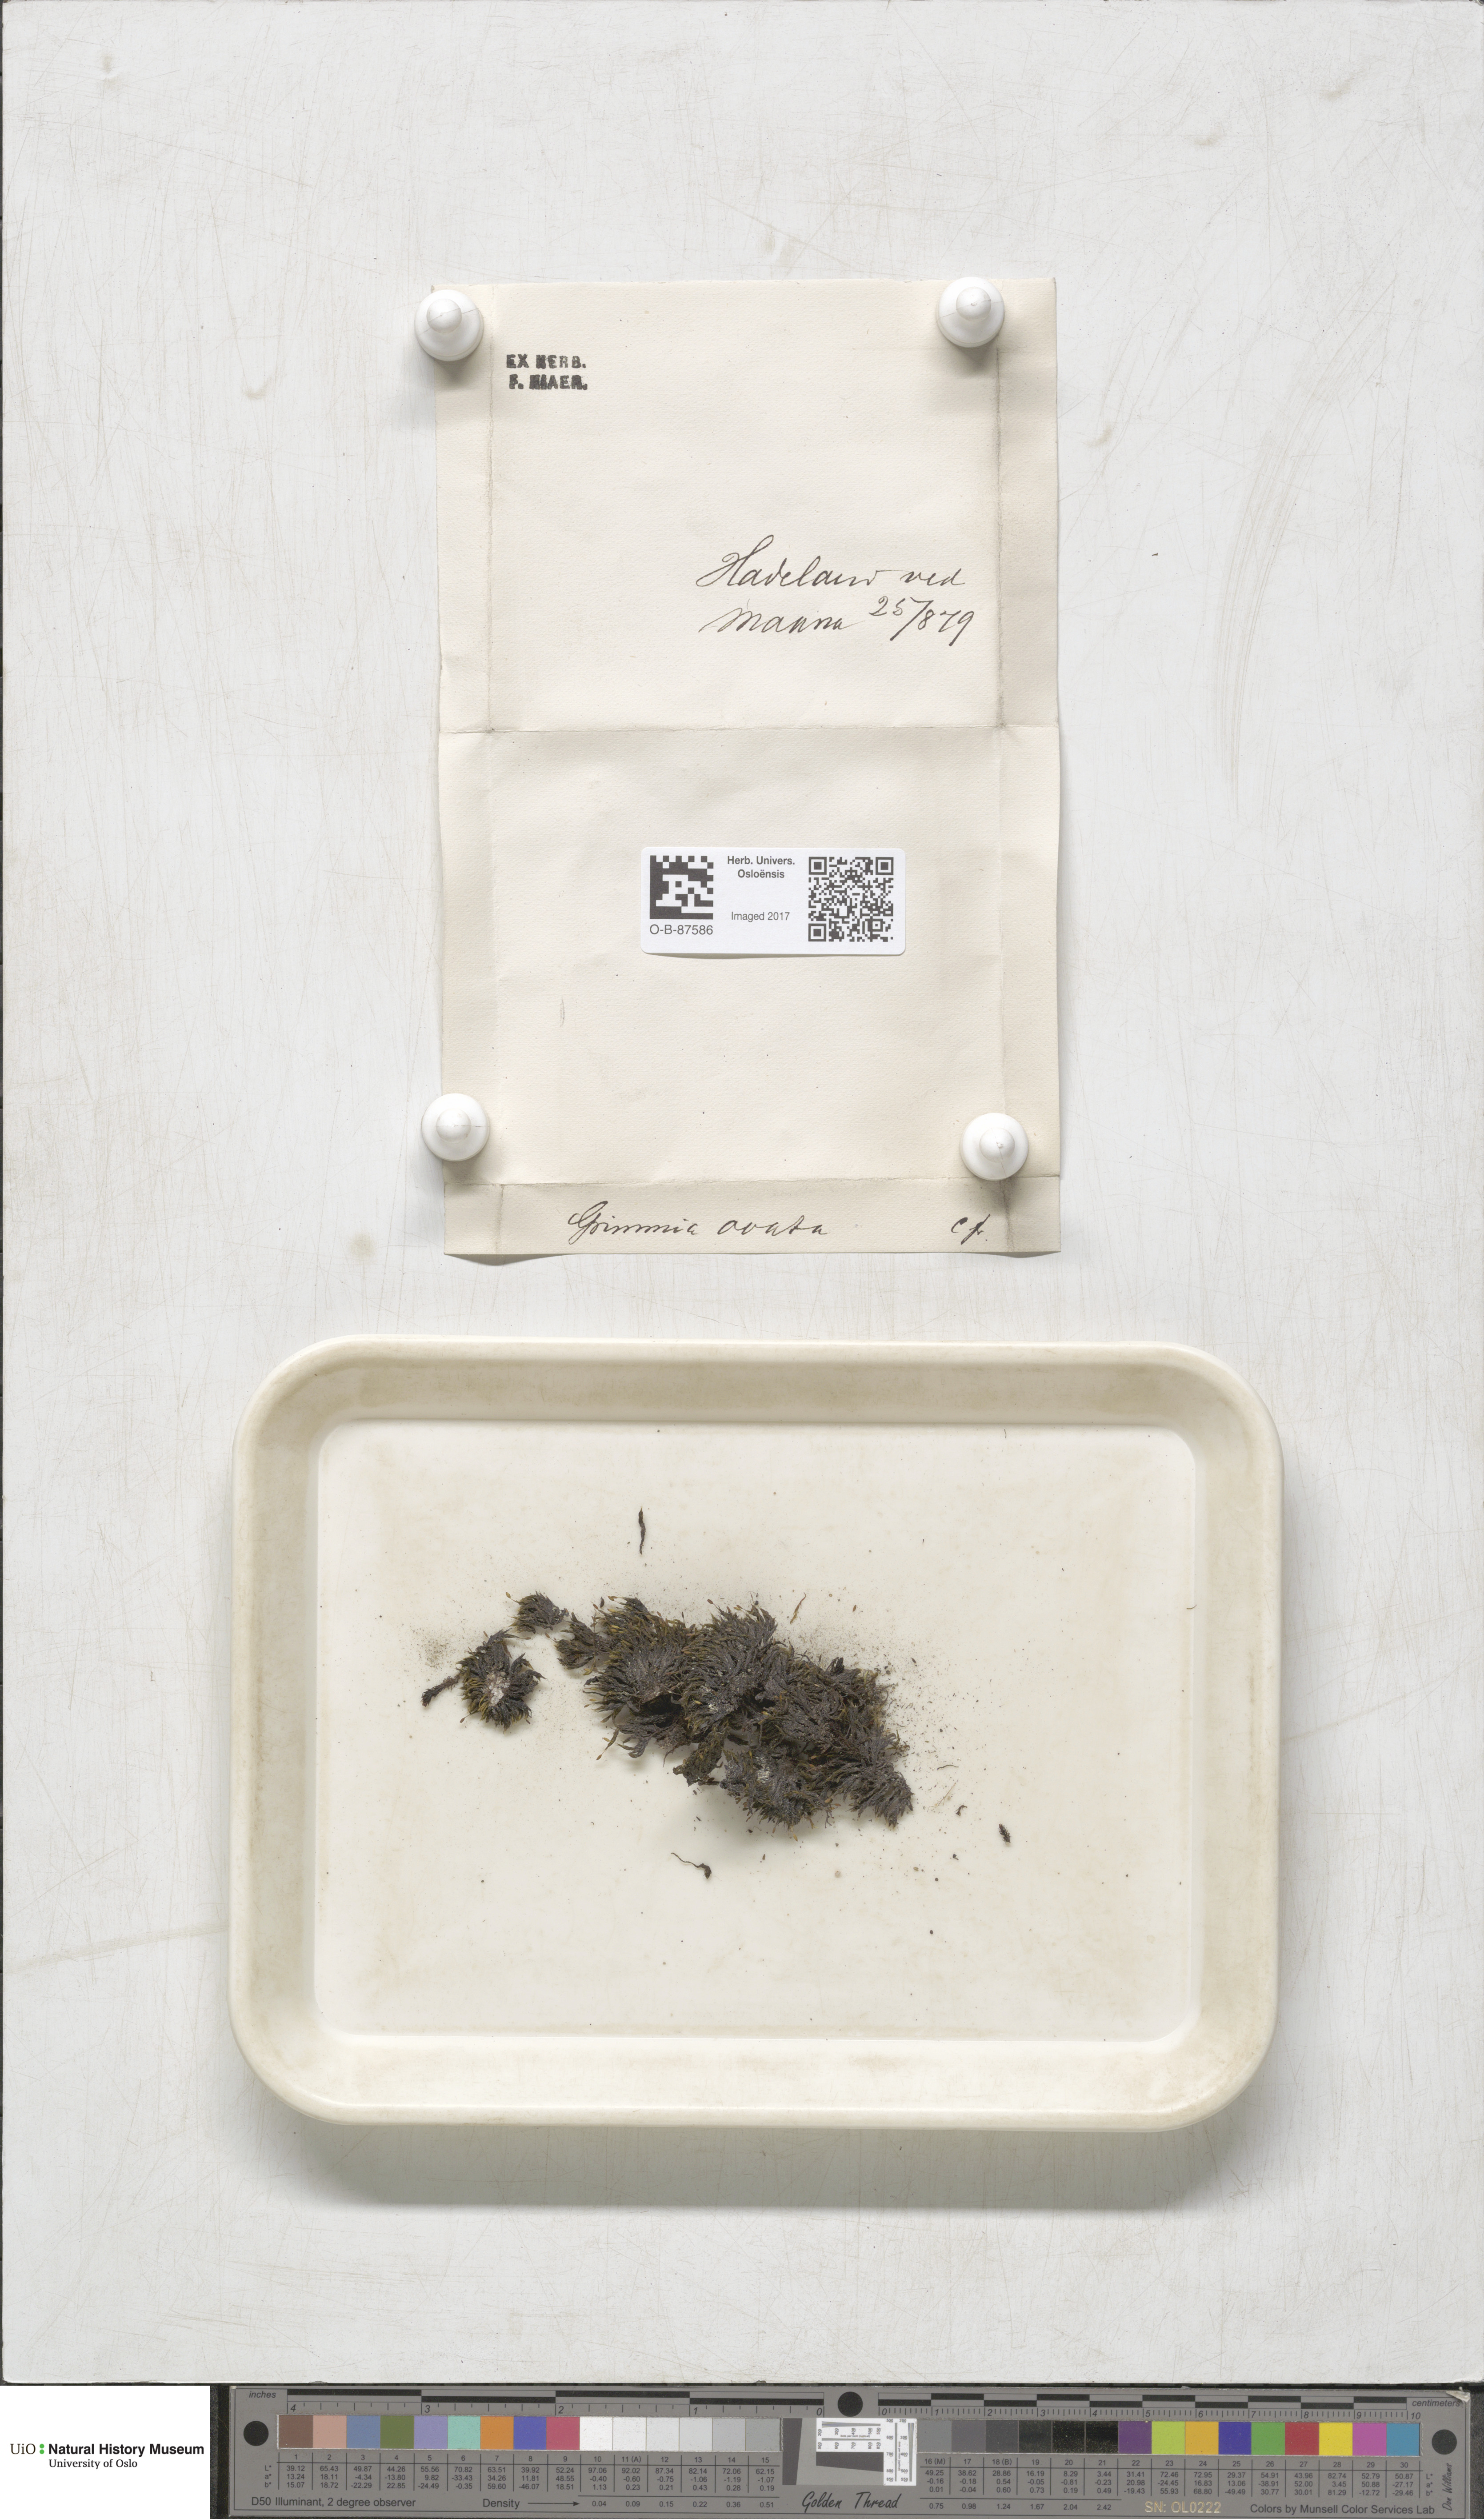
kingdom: Plantae
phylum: Bryophyta
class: Bryopsida
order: Grimmiales
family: Grimmiaceae
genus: Grimmia
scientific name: Grimmia ovalis
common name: Oval grimmia
